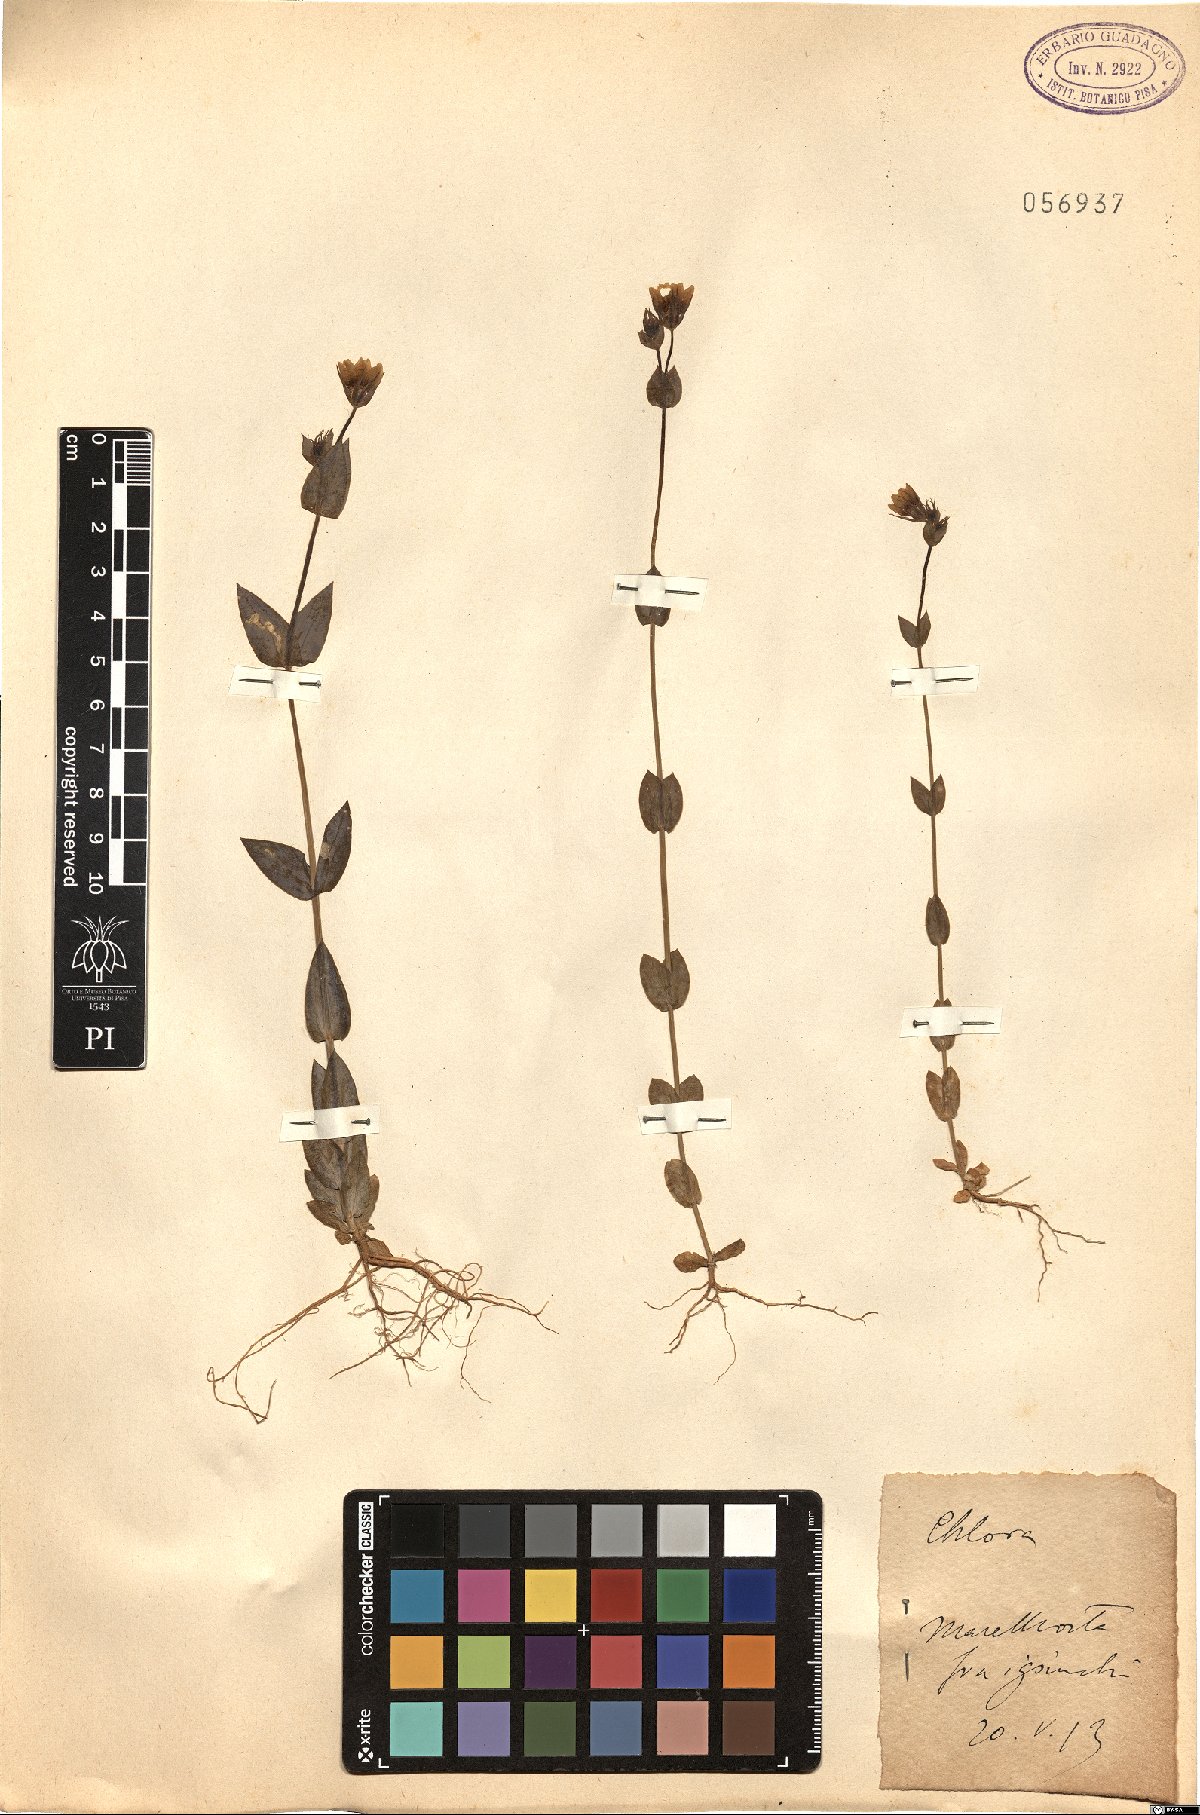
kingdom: Plantae
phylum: Tracheophyta
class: Magnoliopsida
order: Gentianales
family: Gentianaceae
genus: Blackstonia
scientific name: Blackstonia
